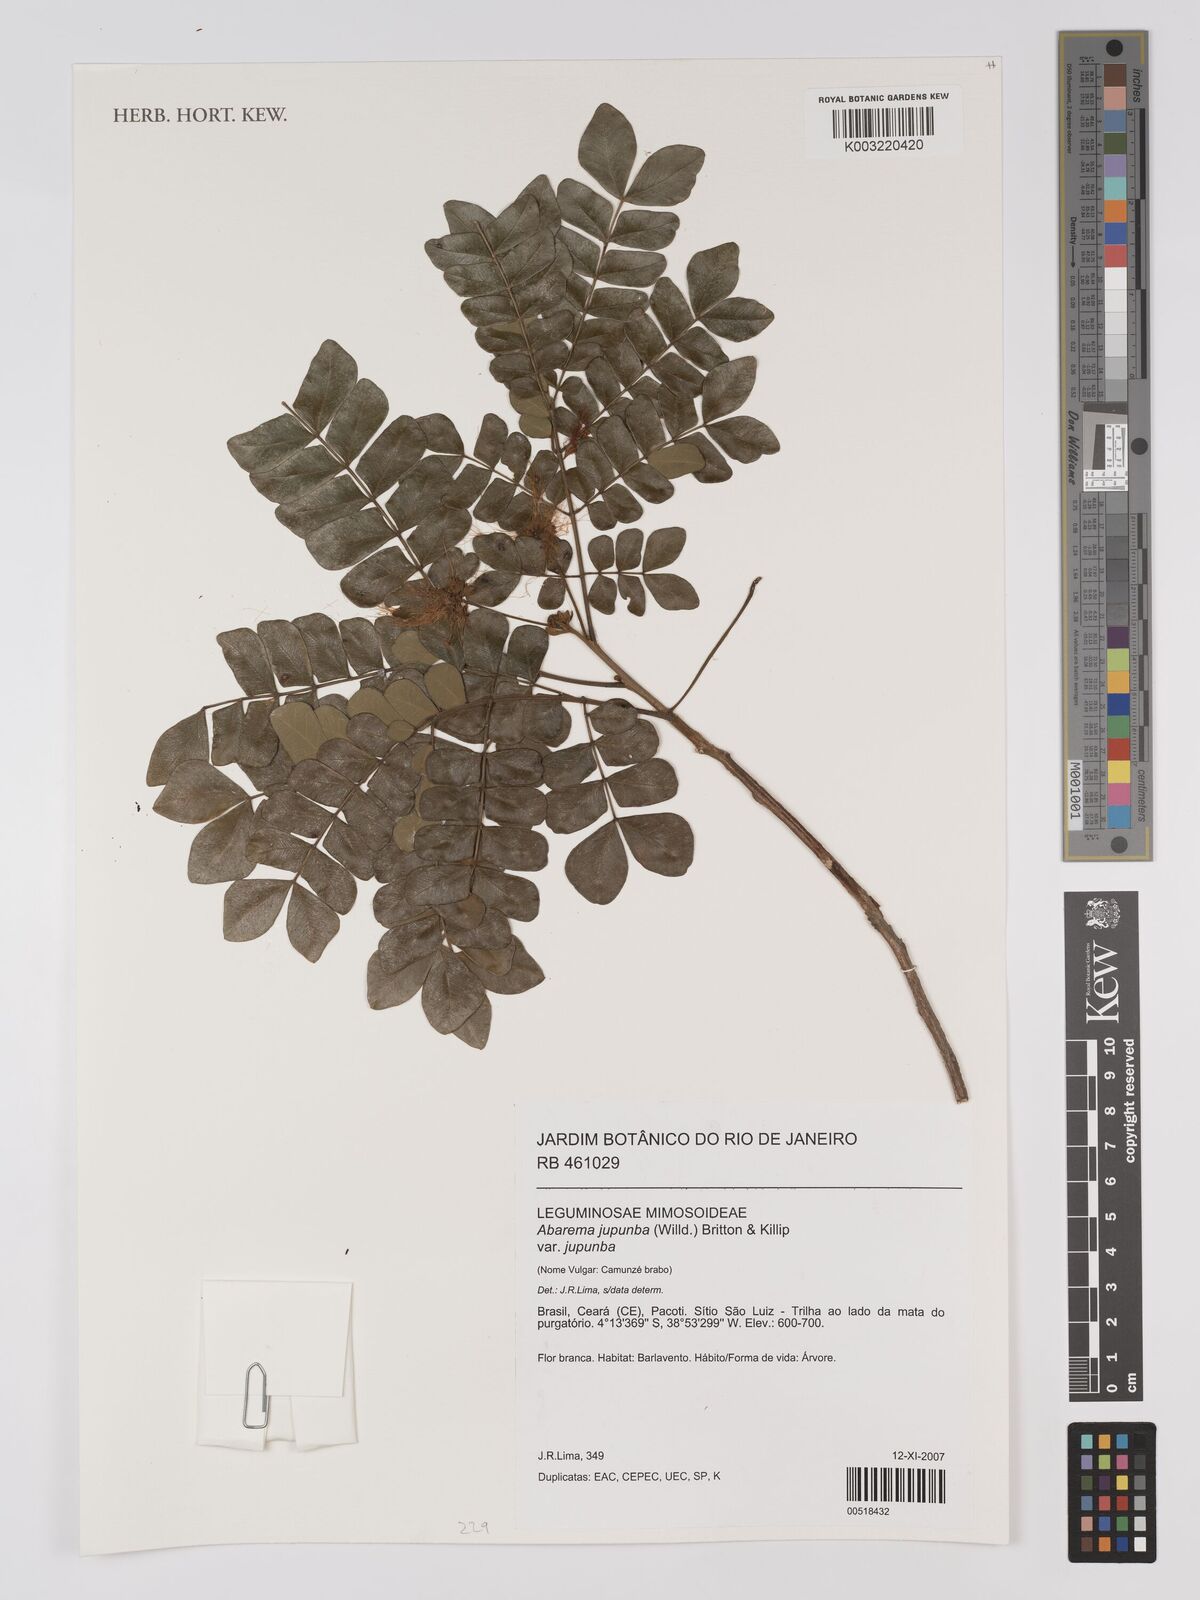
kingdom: Plantae
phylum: Tracheophyta
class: Magnoliopsida
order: Fabales
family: Fabaceae
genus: Jupunba
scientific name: Jupunba trapezifolia
